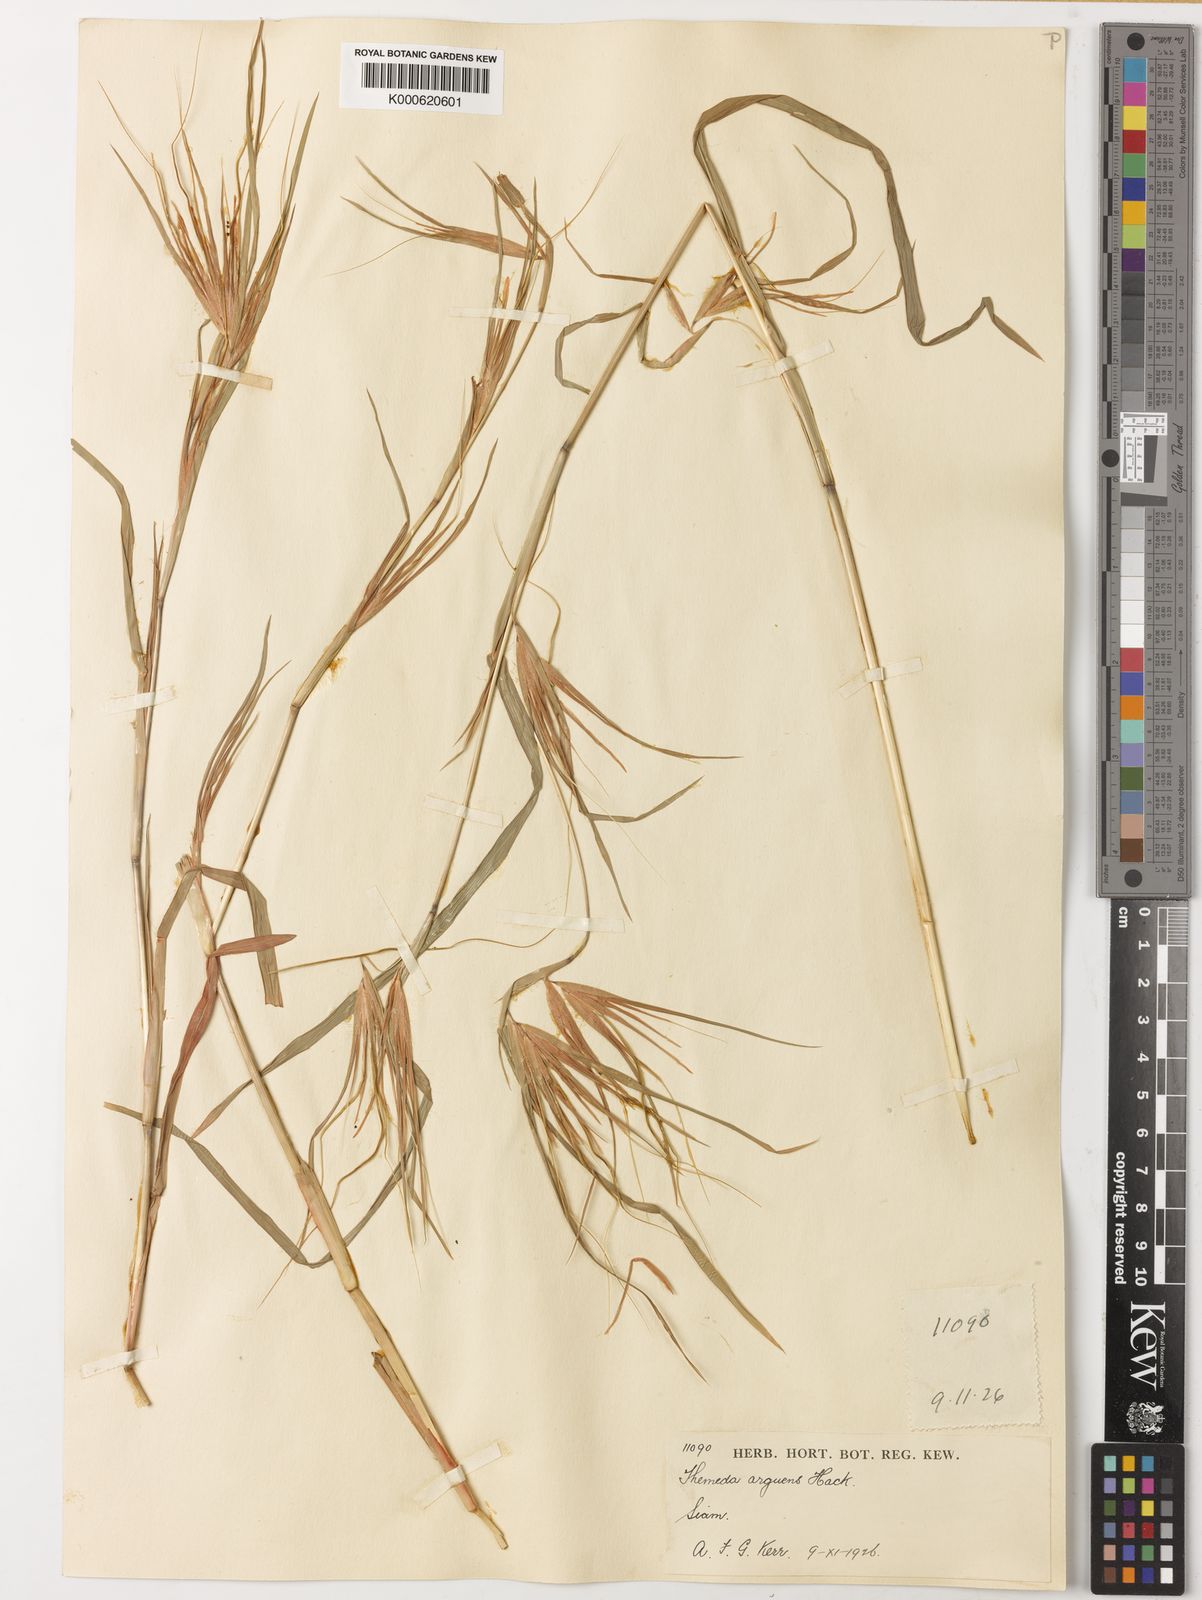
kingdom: Plantae
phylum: Tracheophyta
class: Liliopsida
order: Poales
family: Poaceae
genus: Themeda
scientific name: Themeda arguens
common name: Christmas grass
